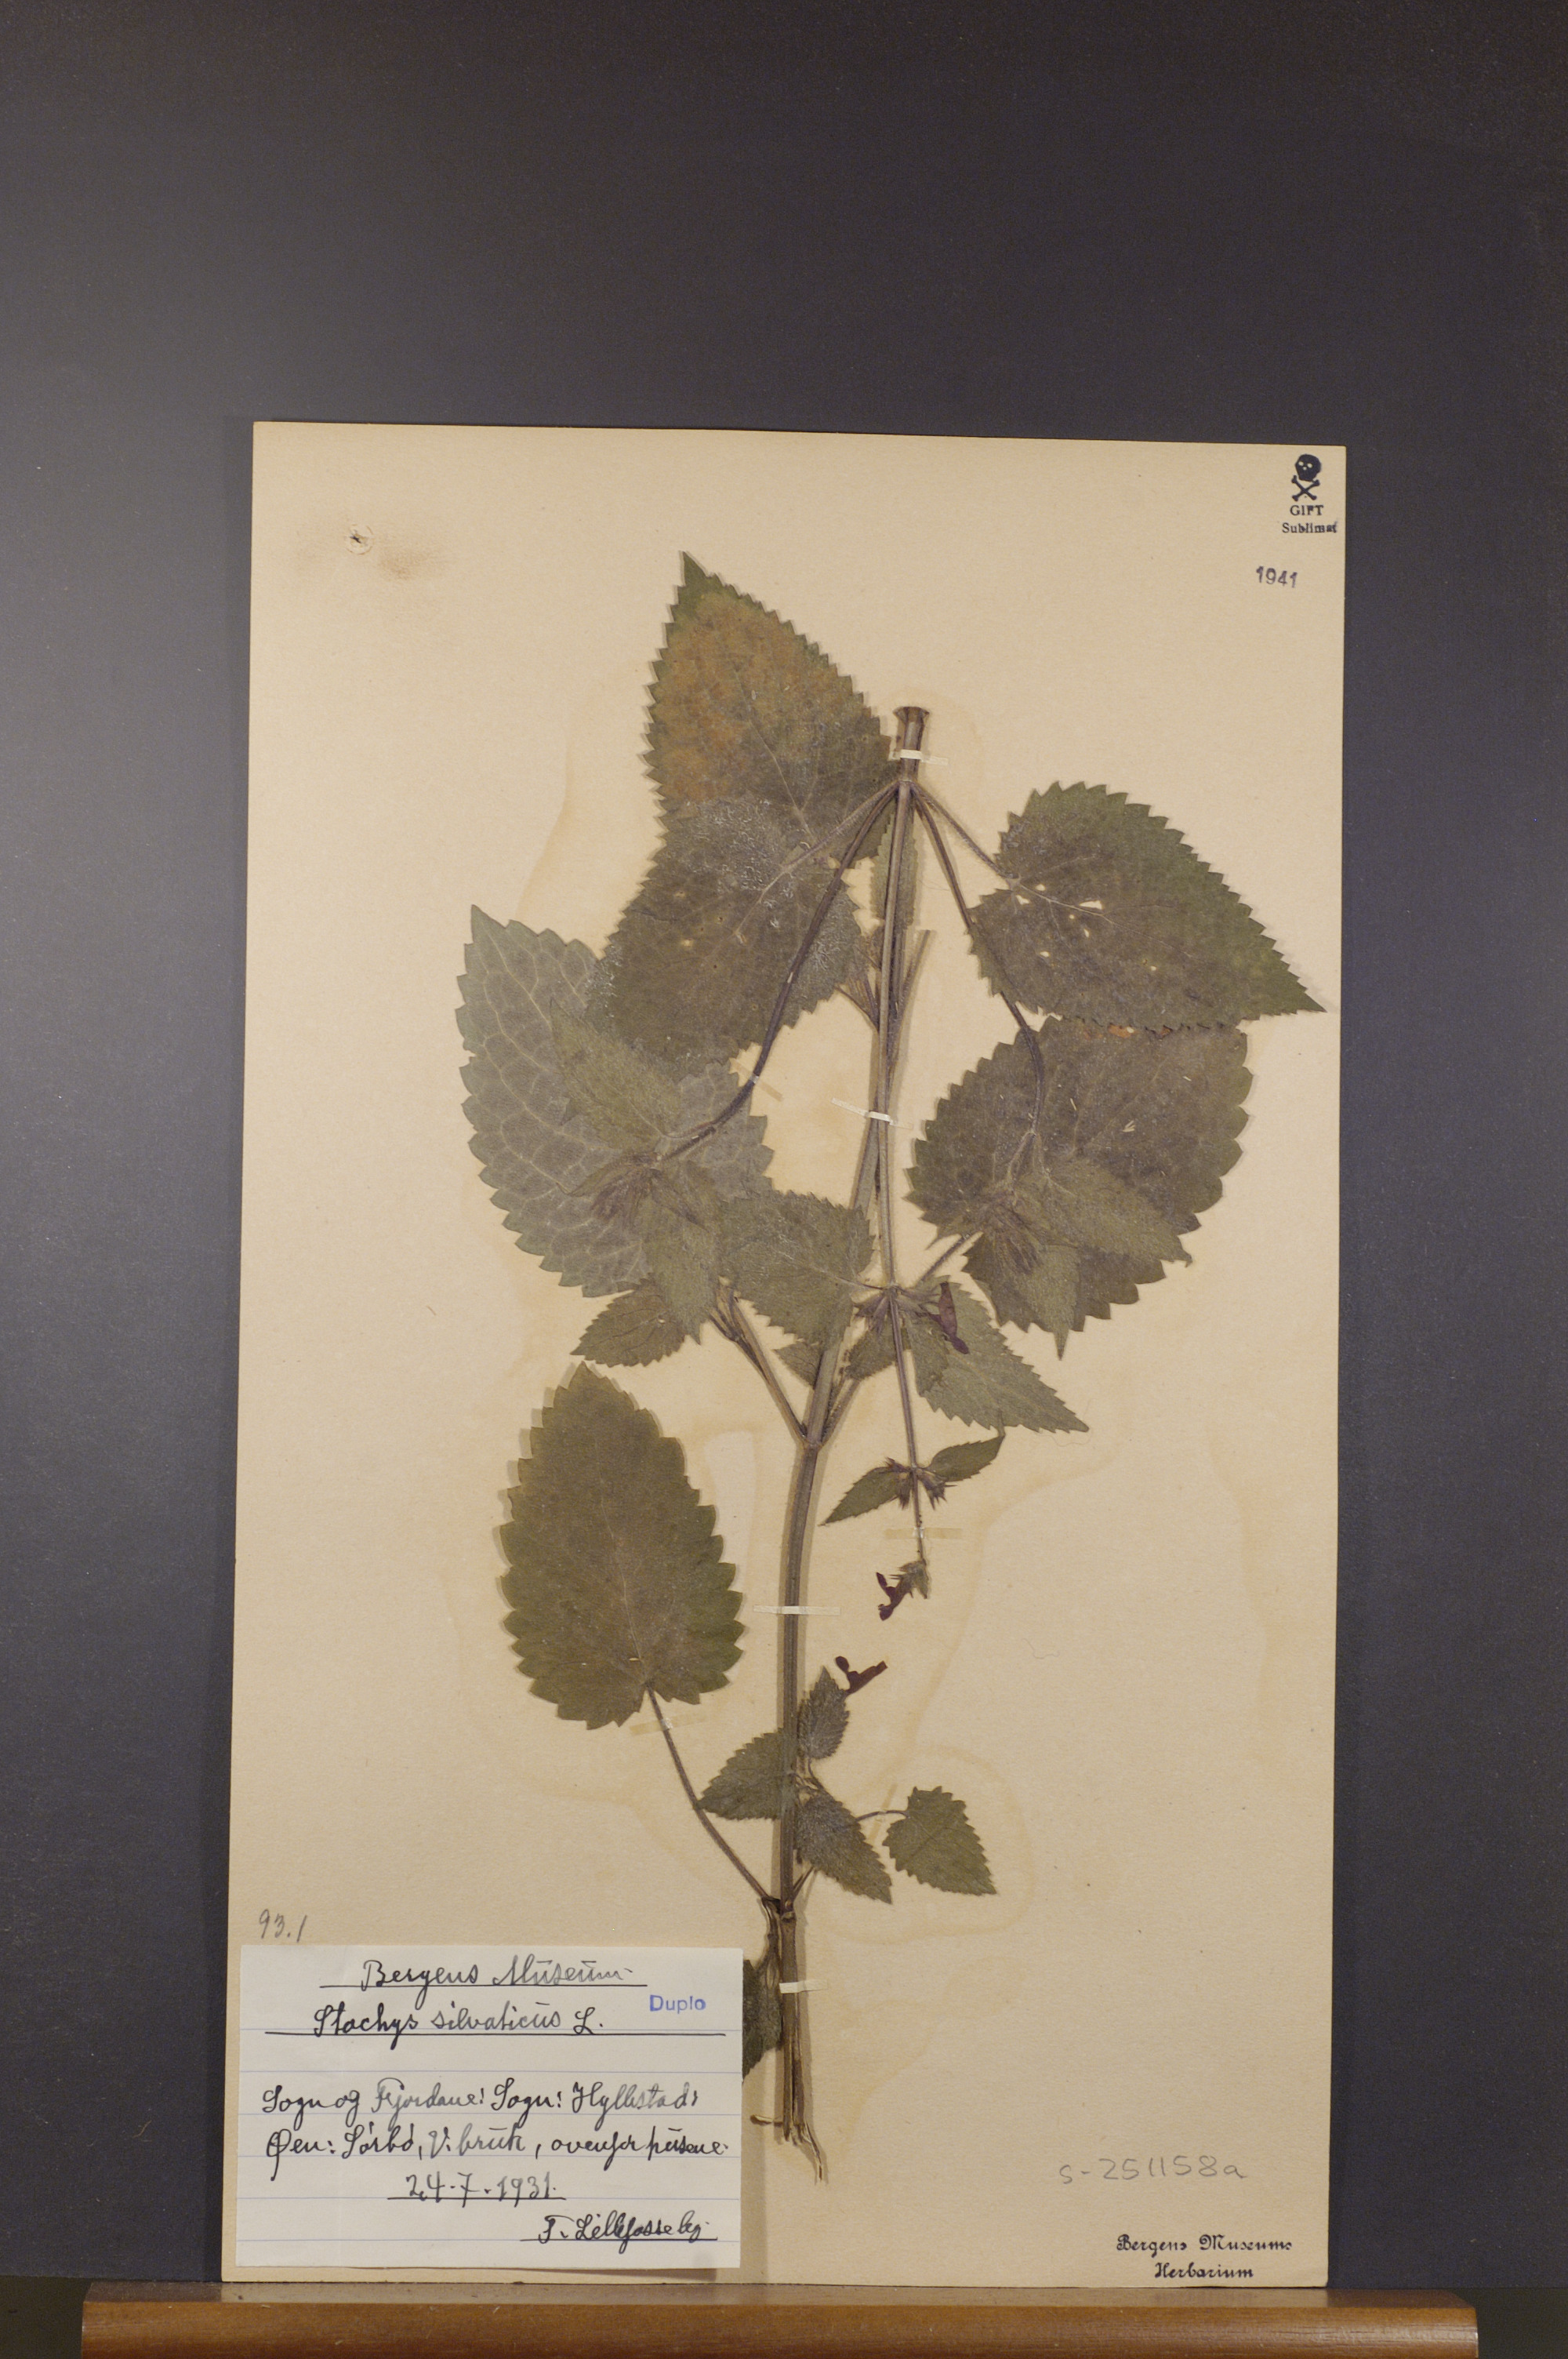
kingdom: Plantae
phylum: Tracheophyta
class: Magnoliopsida
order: Lamiales
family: Lamiaceae
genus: Stachys
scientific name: Stachys sylvatica
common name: Hedge woundwort
